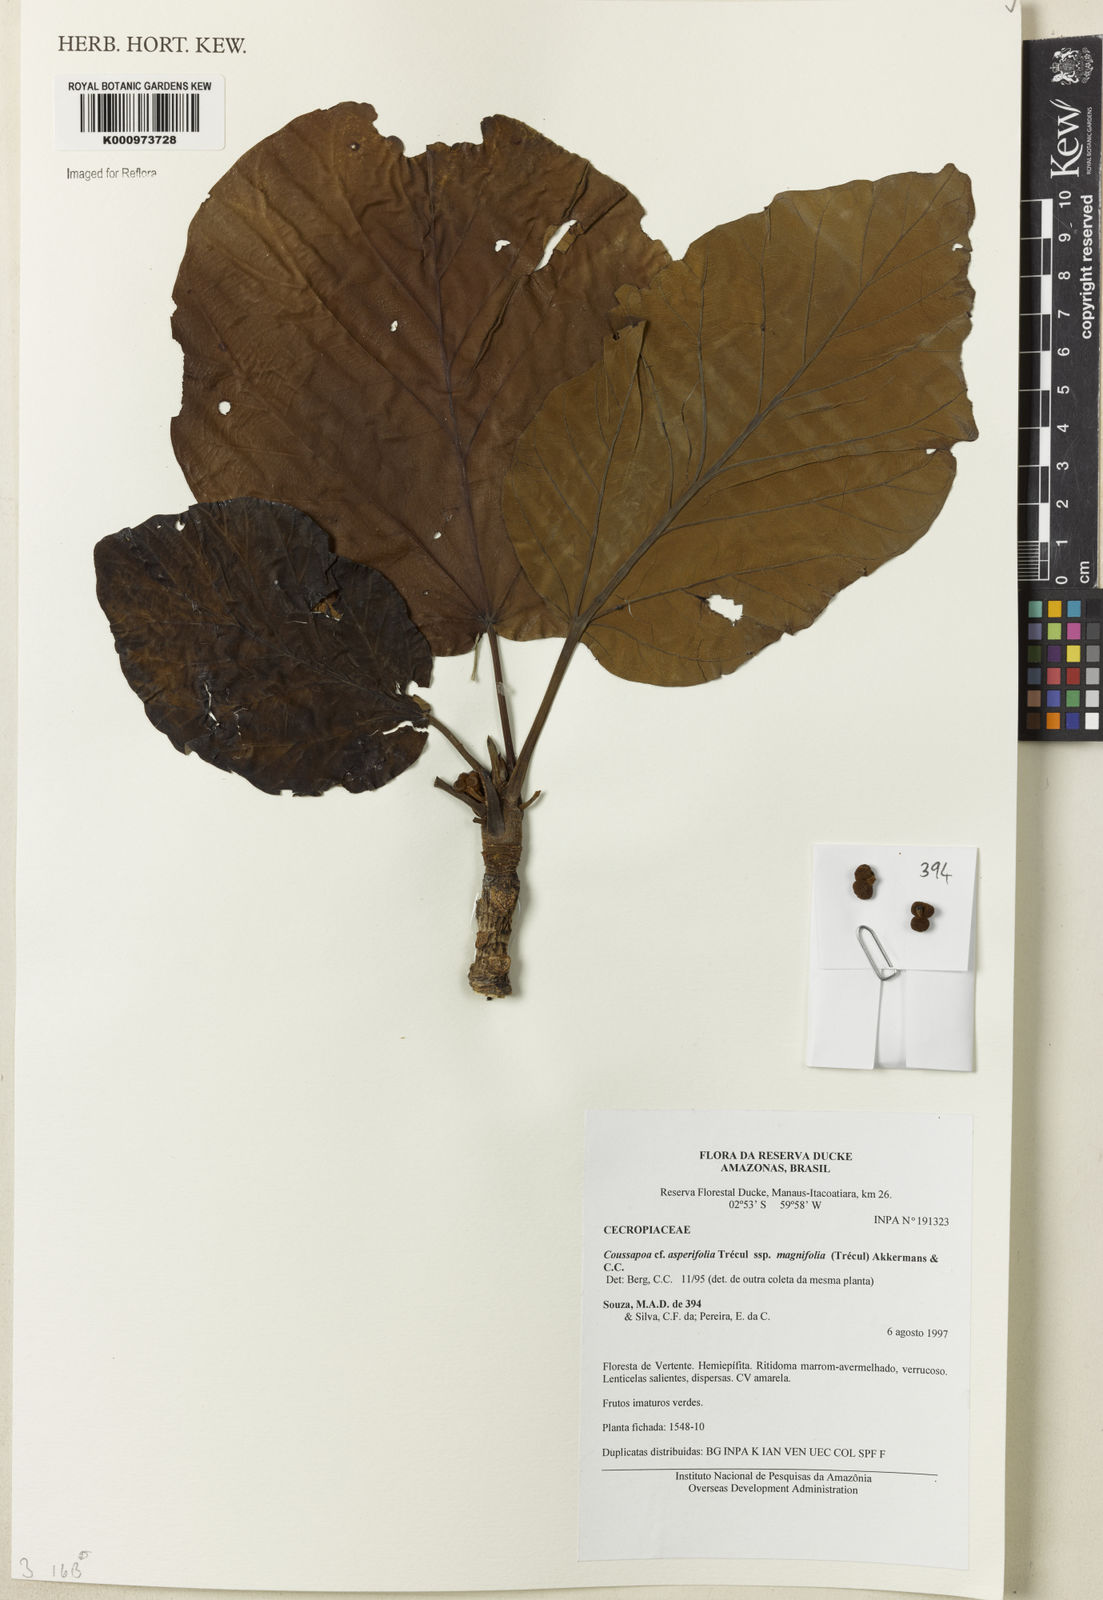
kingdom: Plantae
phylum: Tracheophyta
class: Magnoliopsida
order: Rosales
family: Urticaceae
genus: Coussapoa
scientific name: Coussapoa
